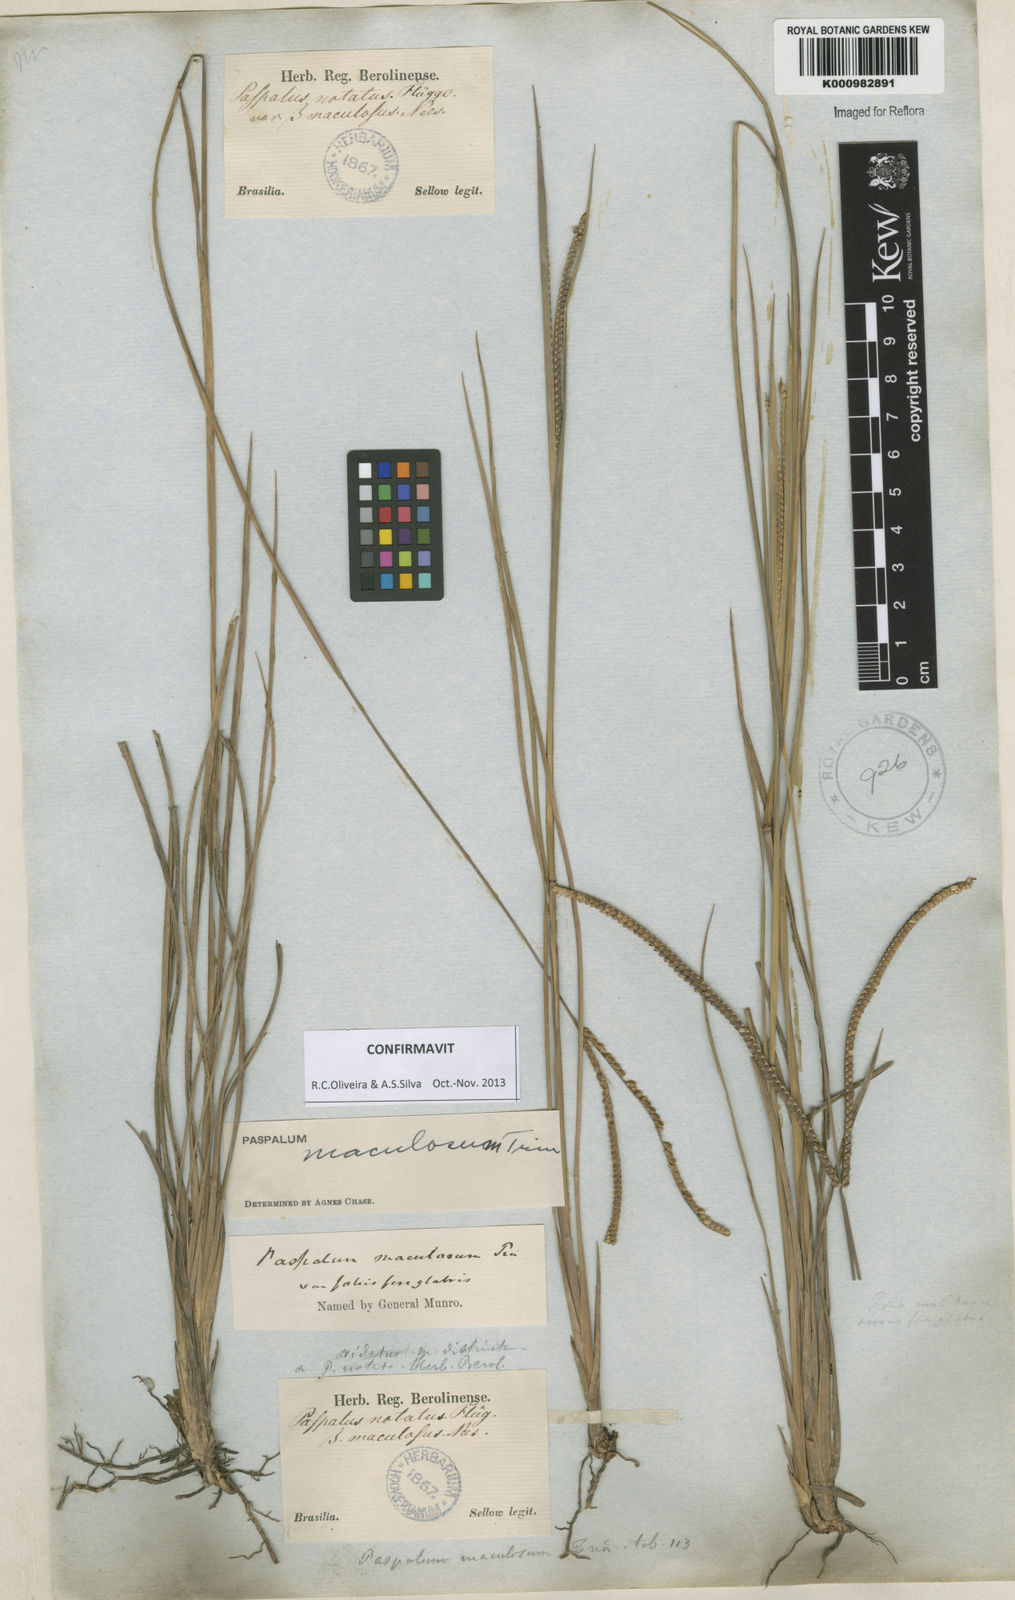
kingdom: Plantae
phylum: Tracheophyta
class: Liliopsida
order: Poales
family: Poaceae
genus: Paspalum
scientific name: Paspalum maculosum
